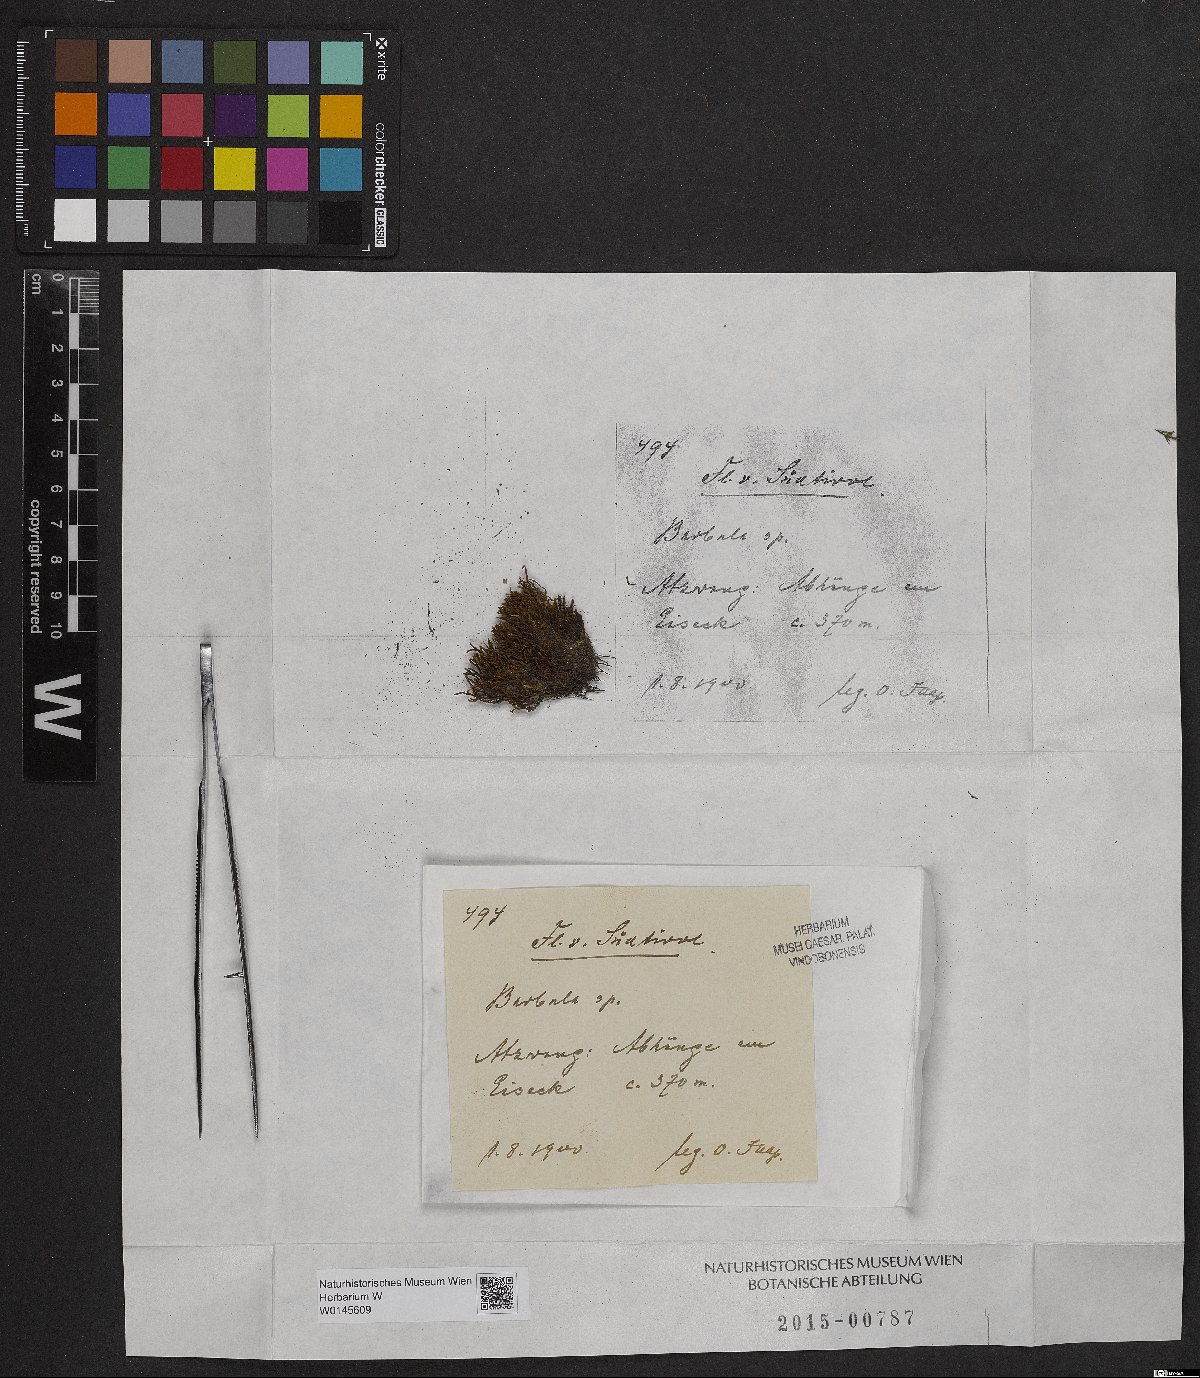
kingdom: Plantae
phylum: Bryophyta
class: Bryopsida
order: Pottiales
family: Pottiaceae
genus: Barbula
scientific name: Barbula
